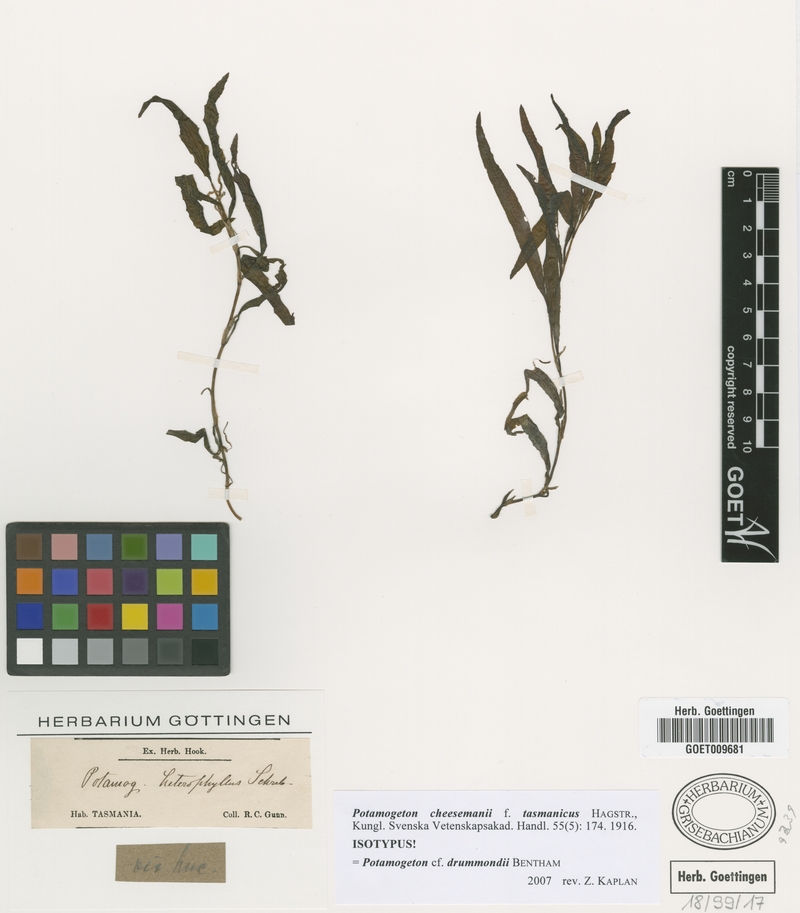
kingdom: Plantae
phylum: Tracheophyta
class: Liliopsida
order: Alismatales
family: Potamogetonaceae
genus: Potamogeton
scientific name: Potamogeton drummondii
